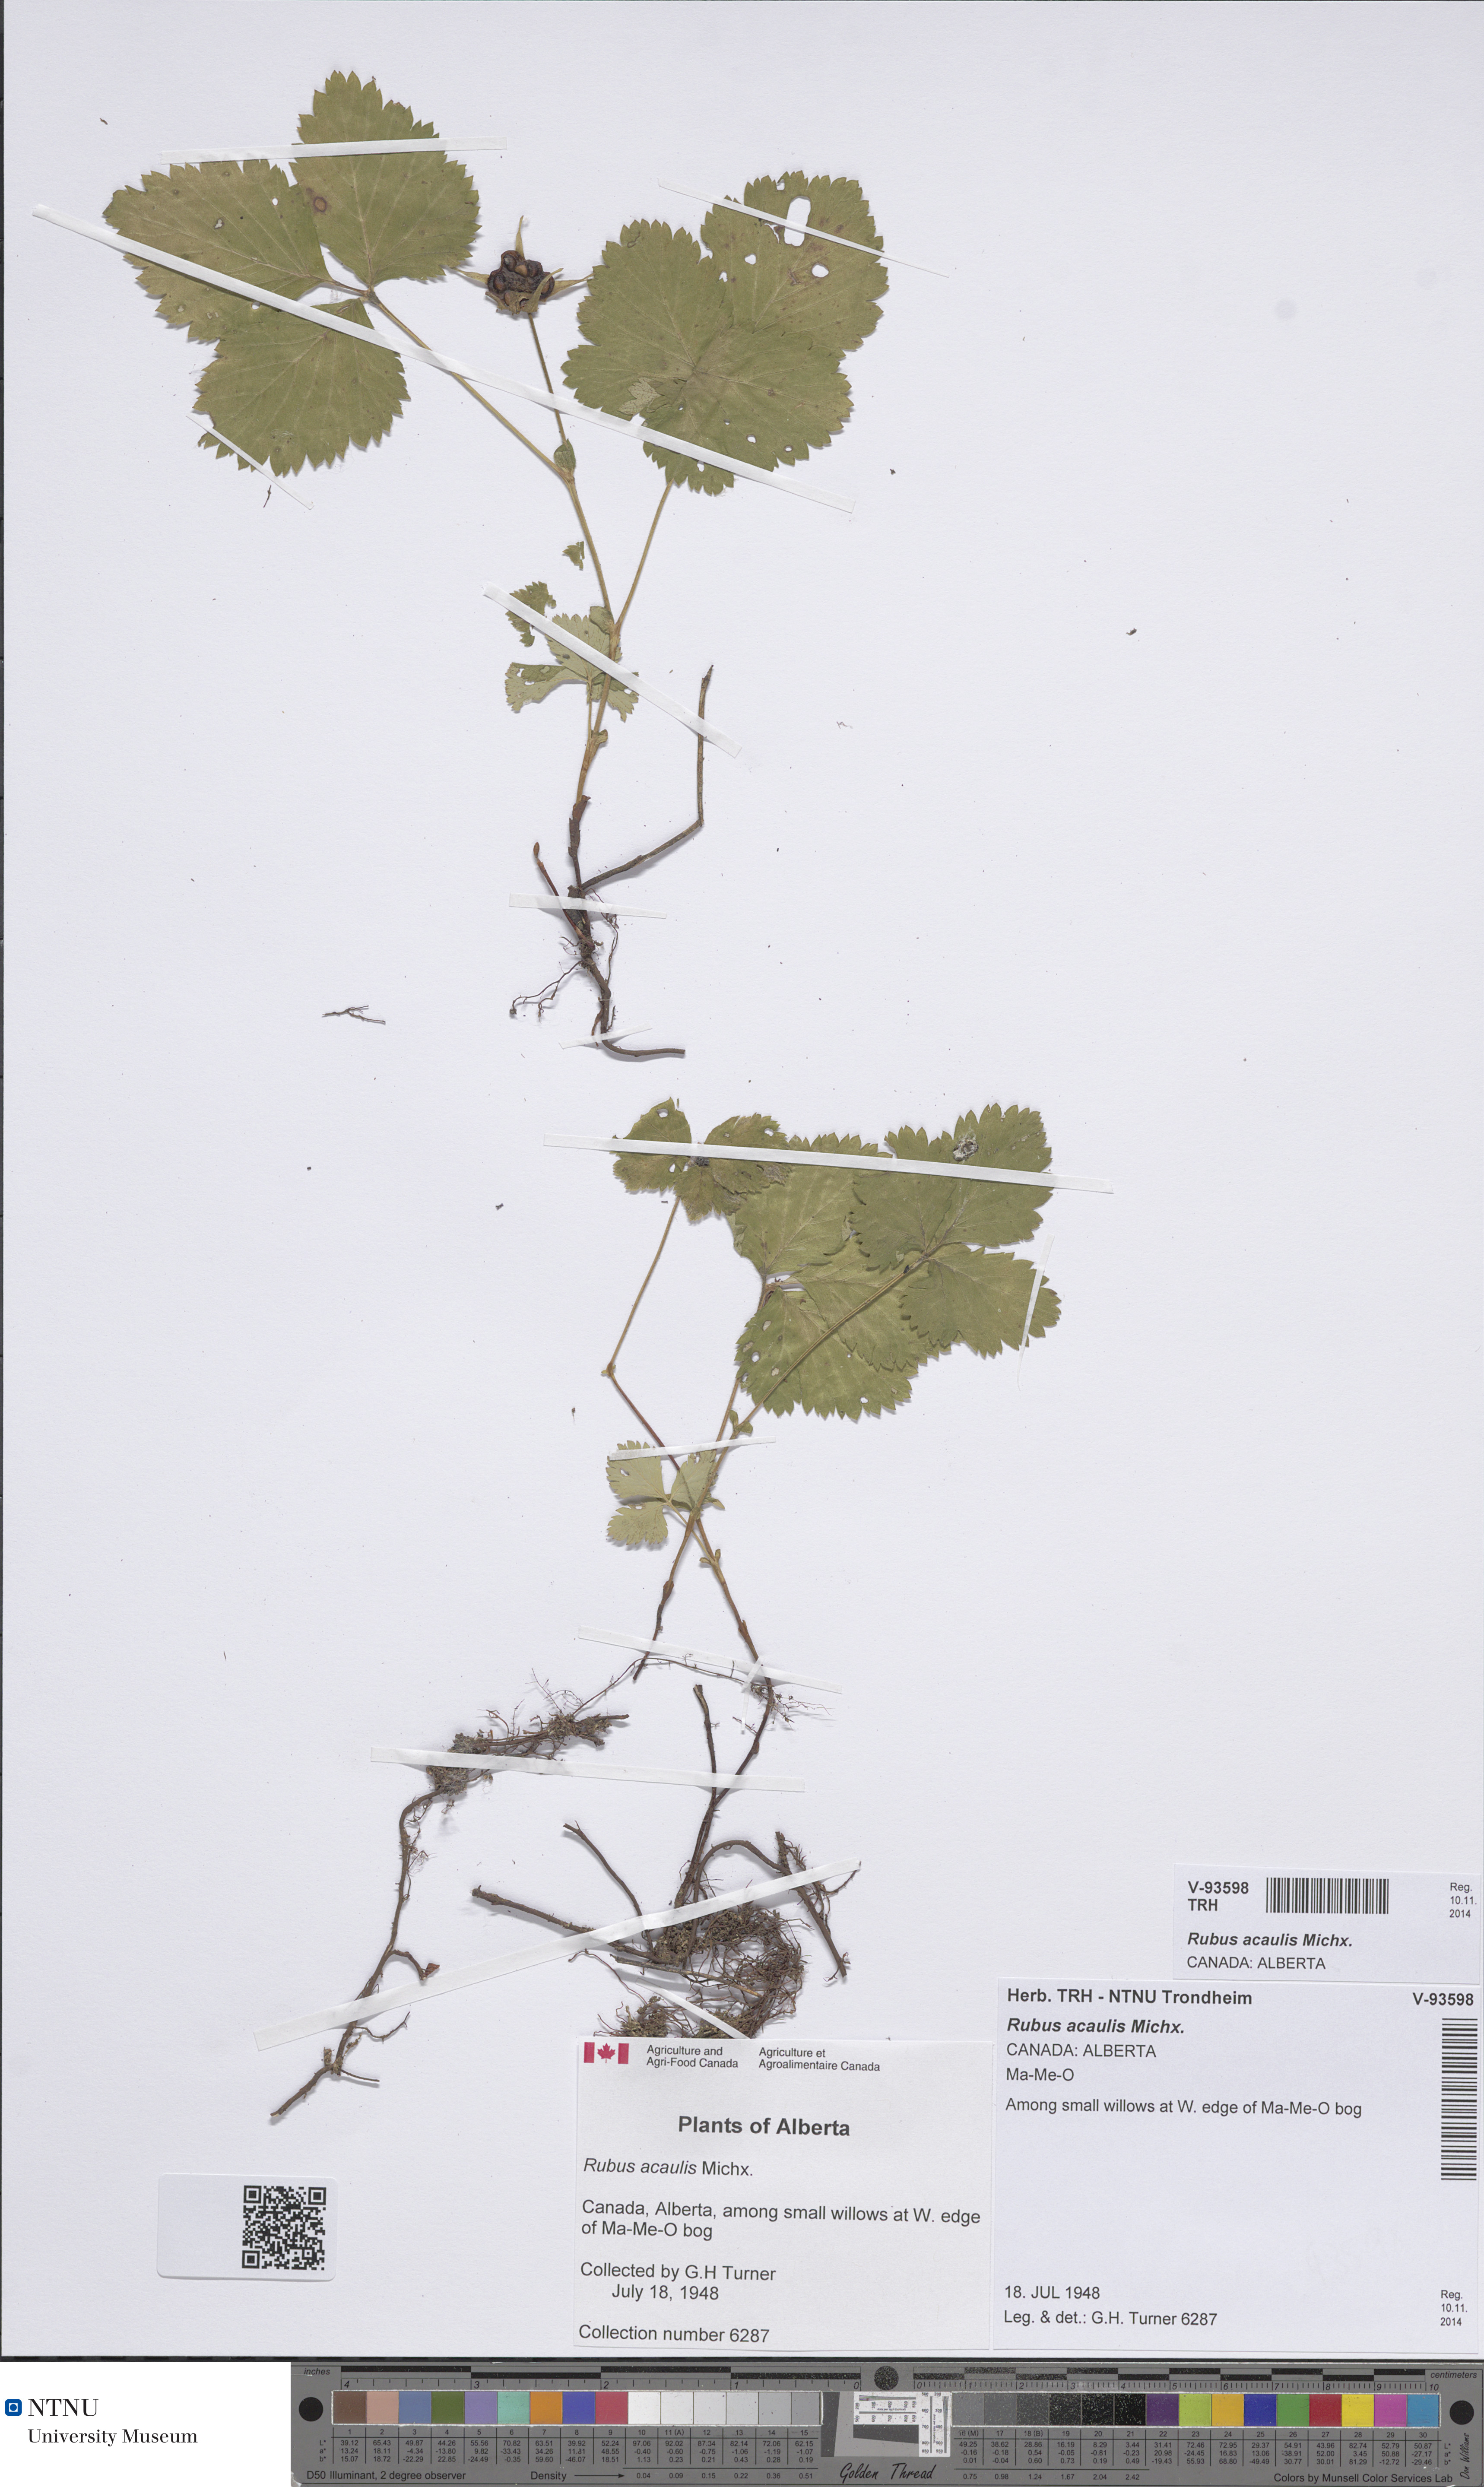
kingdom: Plantae
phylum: Tracheophyta
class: Magnoliopsida
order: Rosales
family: Rosaceae
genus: Rubus
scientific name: Rubus arcticus
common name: Arctic bramble
